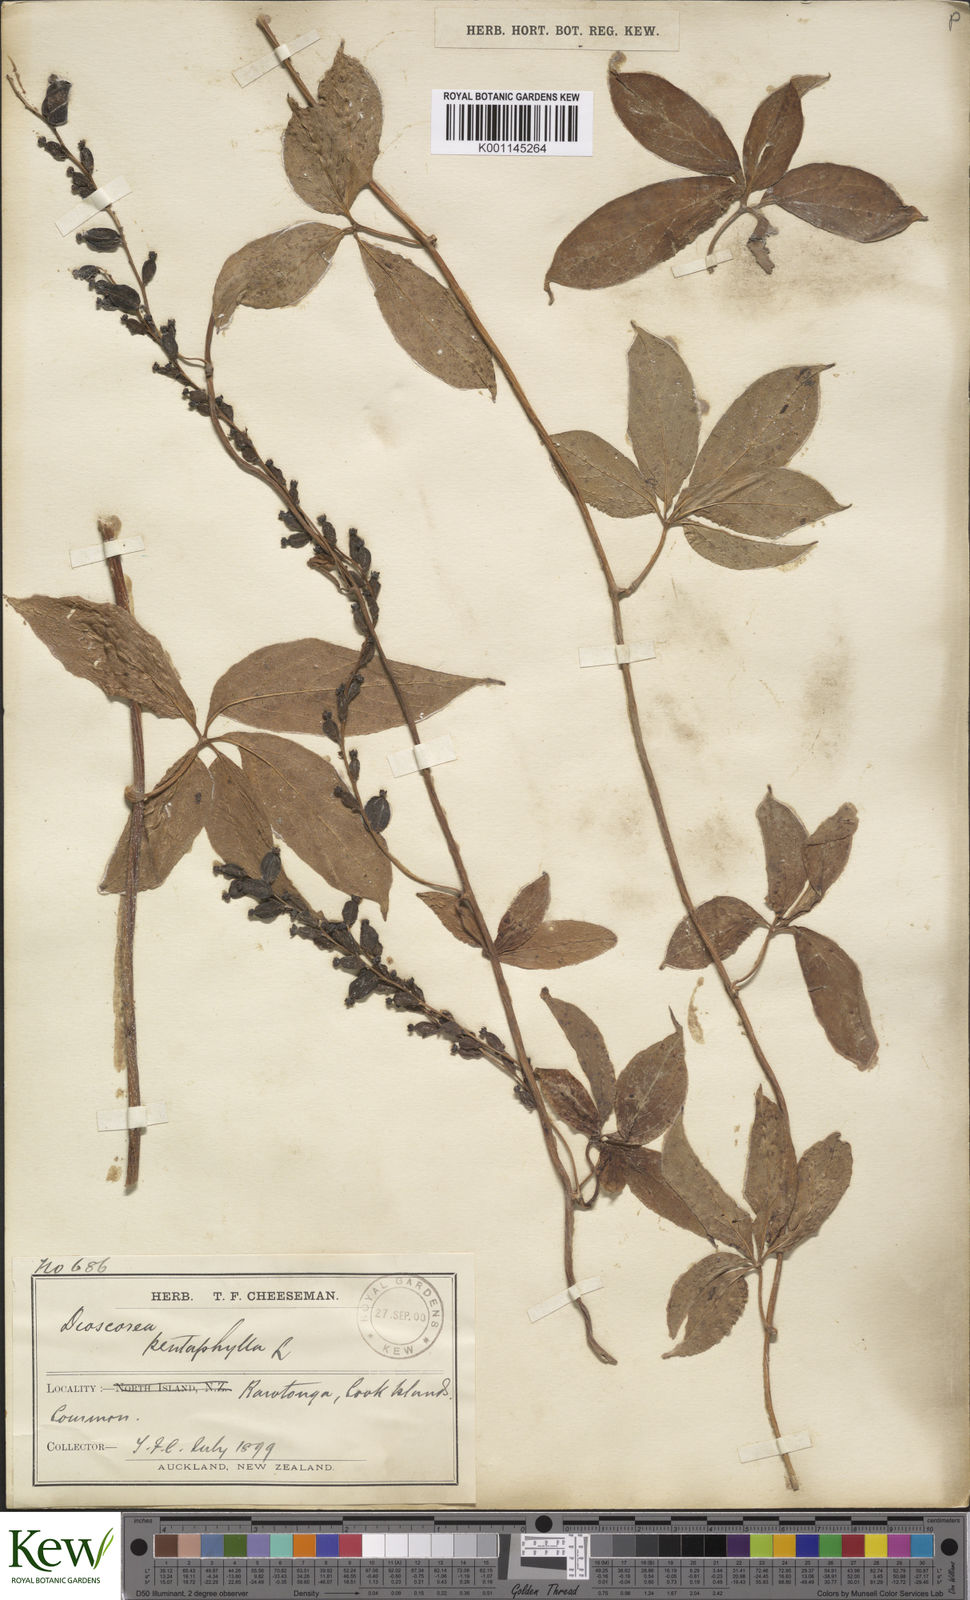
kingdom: Plantae
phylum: Tracheophyta
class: Liliopsida
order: Dioscoreales
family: Dioscoreaceae
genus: Dioscorea
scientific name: Dioscorea pentaphylla
